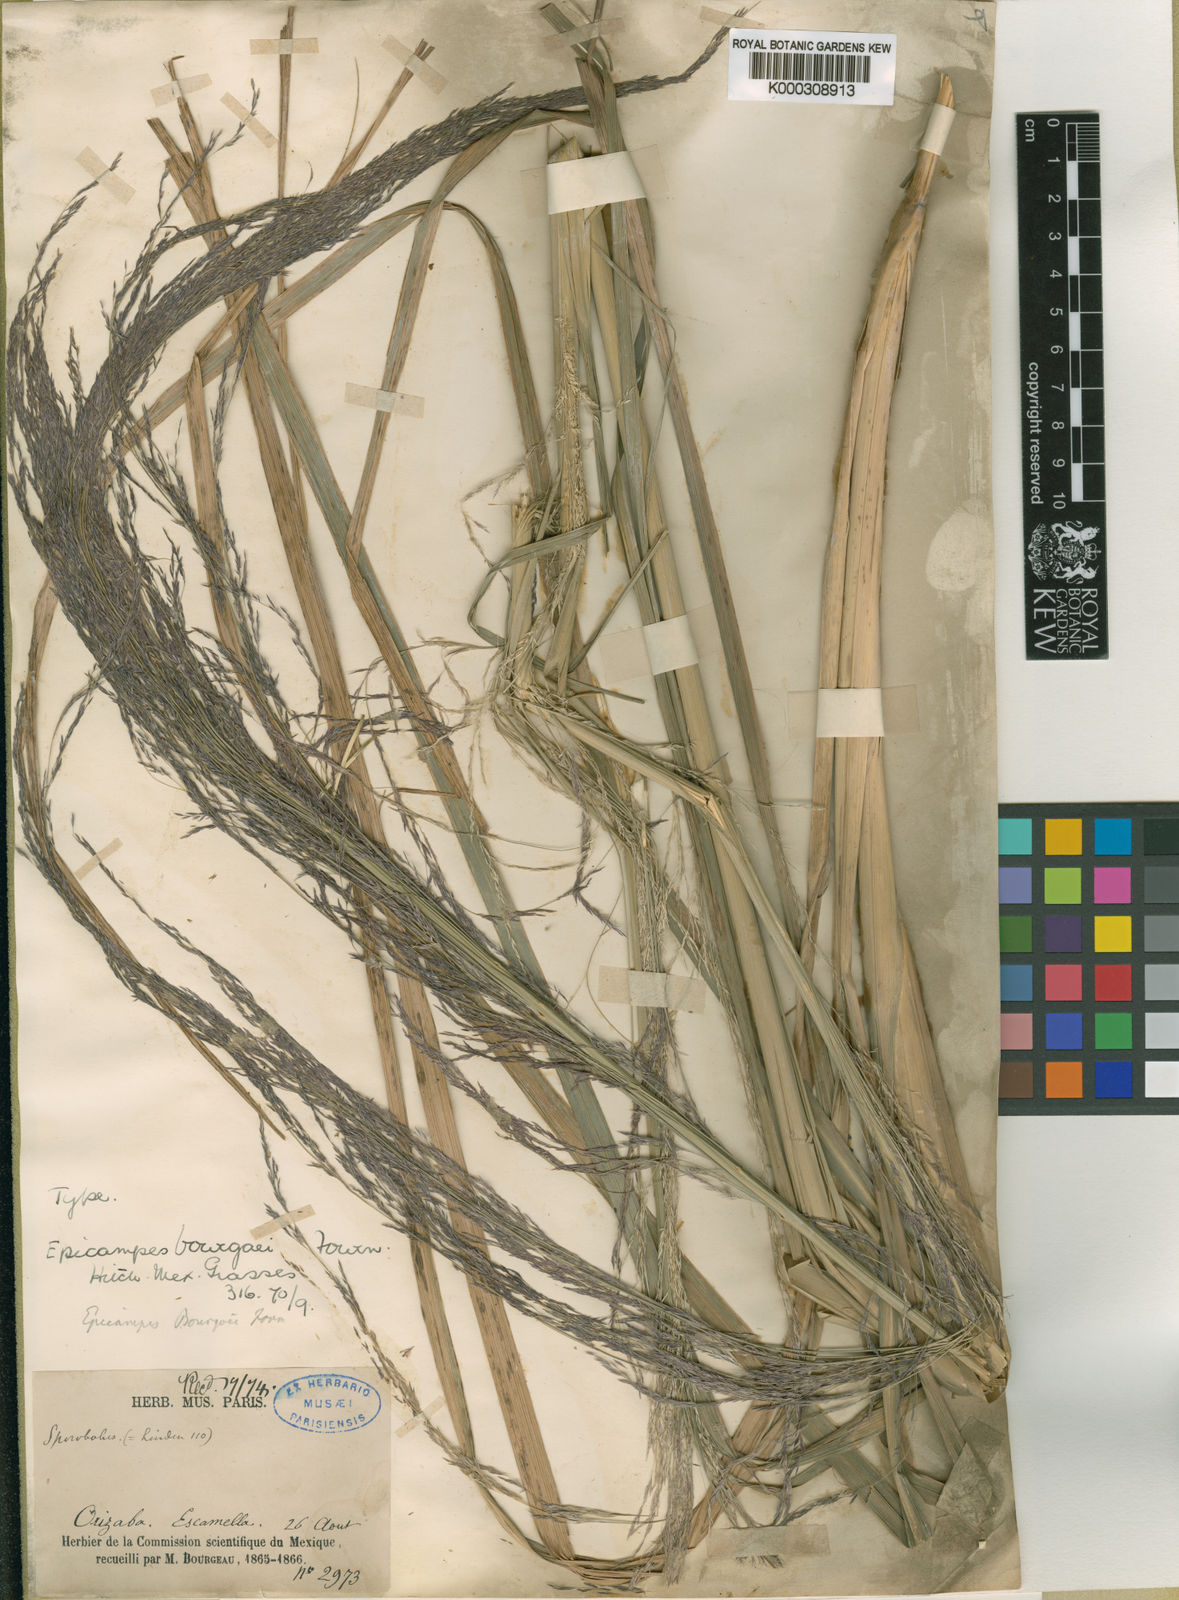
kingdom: Plantae
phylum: Tracheophyta
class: Liliopsida
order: Poales
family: Poaceae
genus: Muhlenbergia
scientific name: Muhlenbergia gigantea
